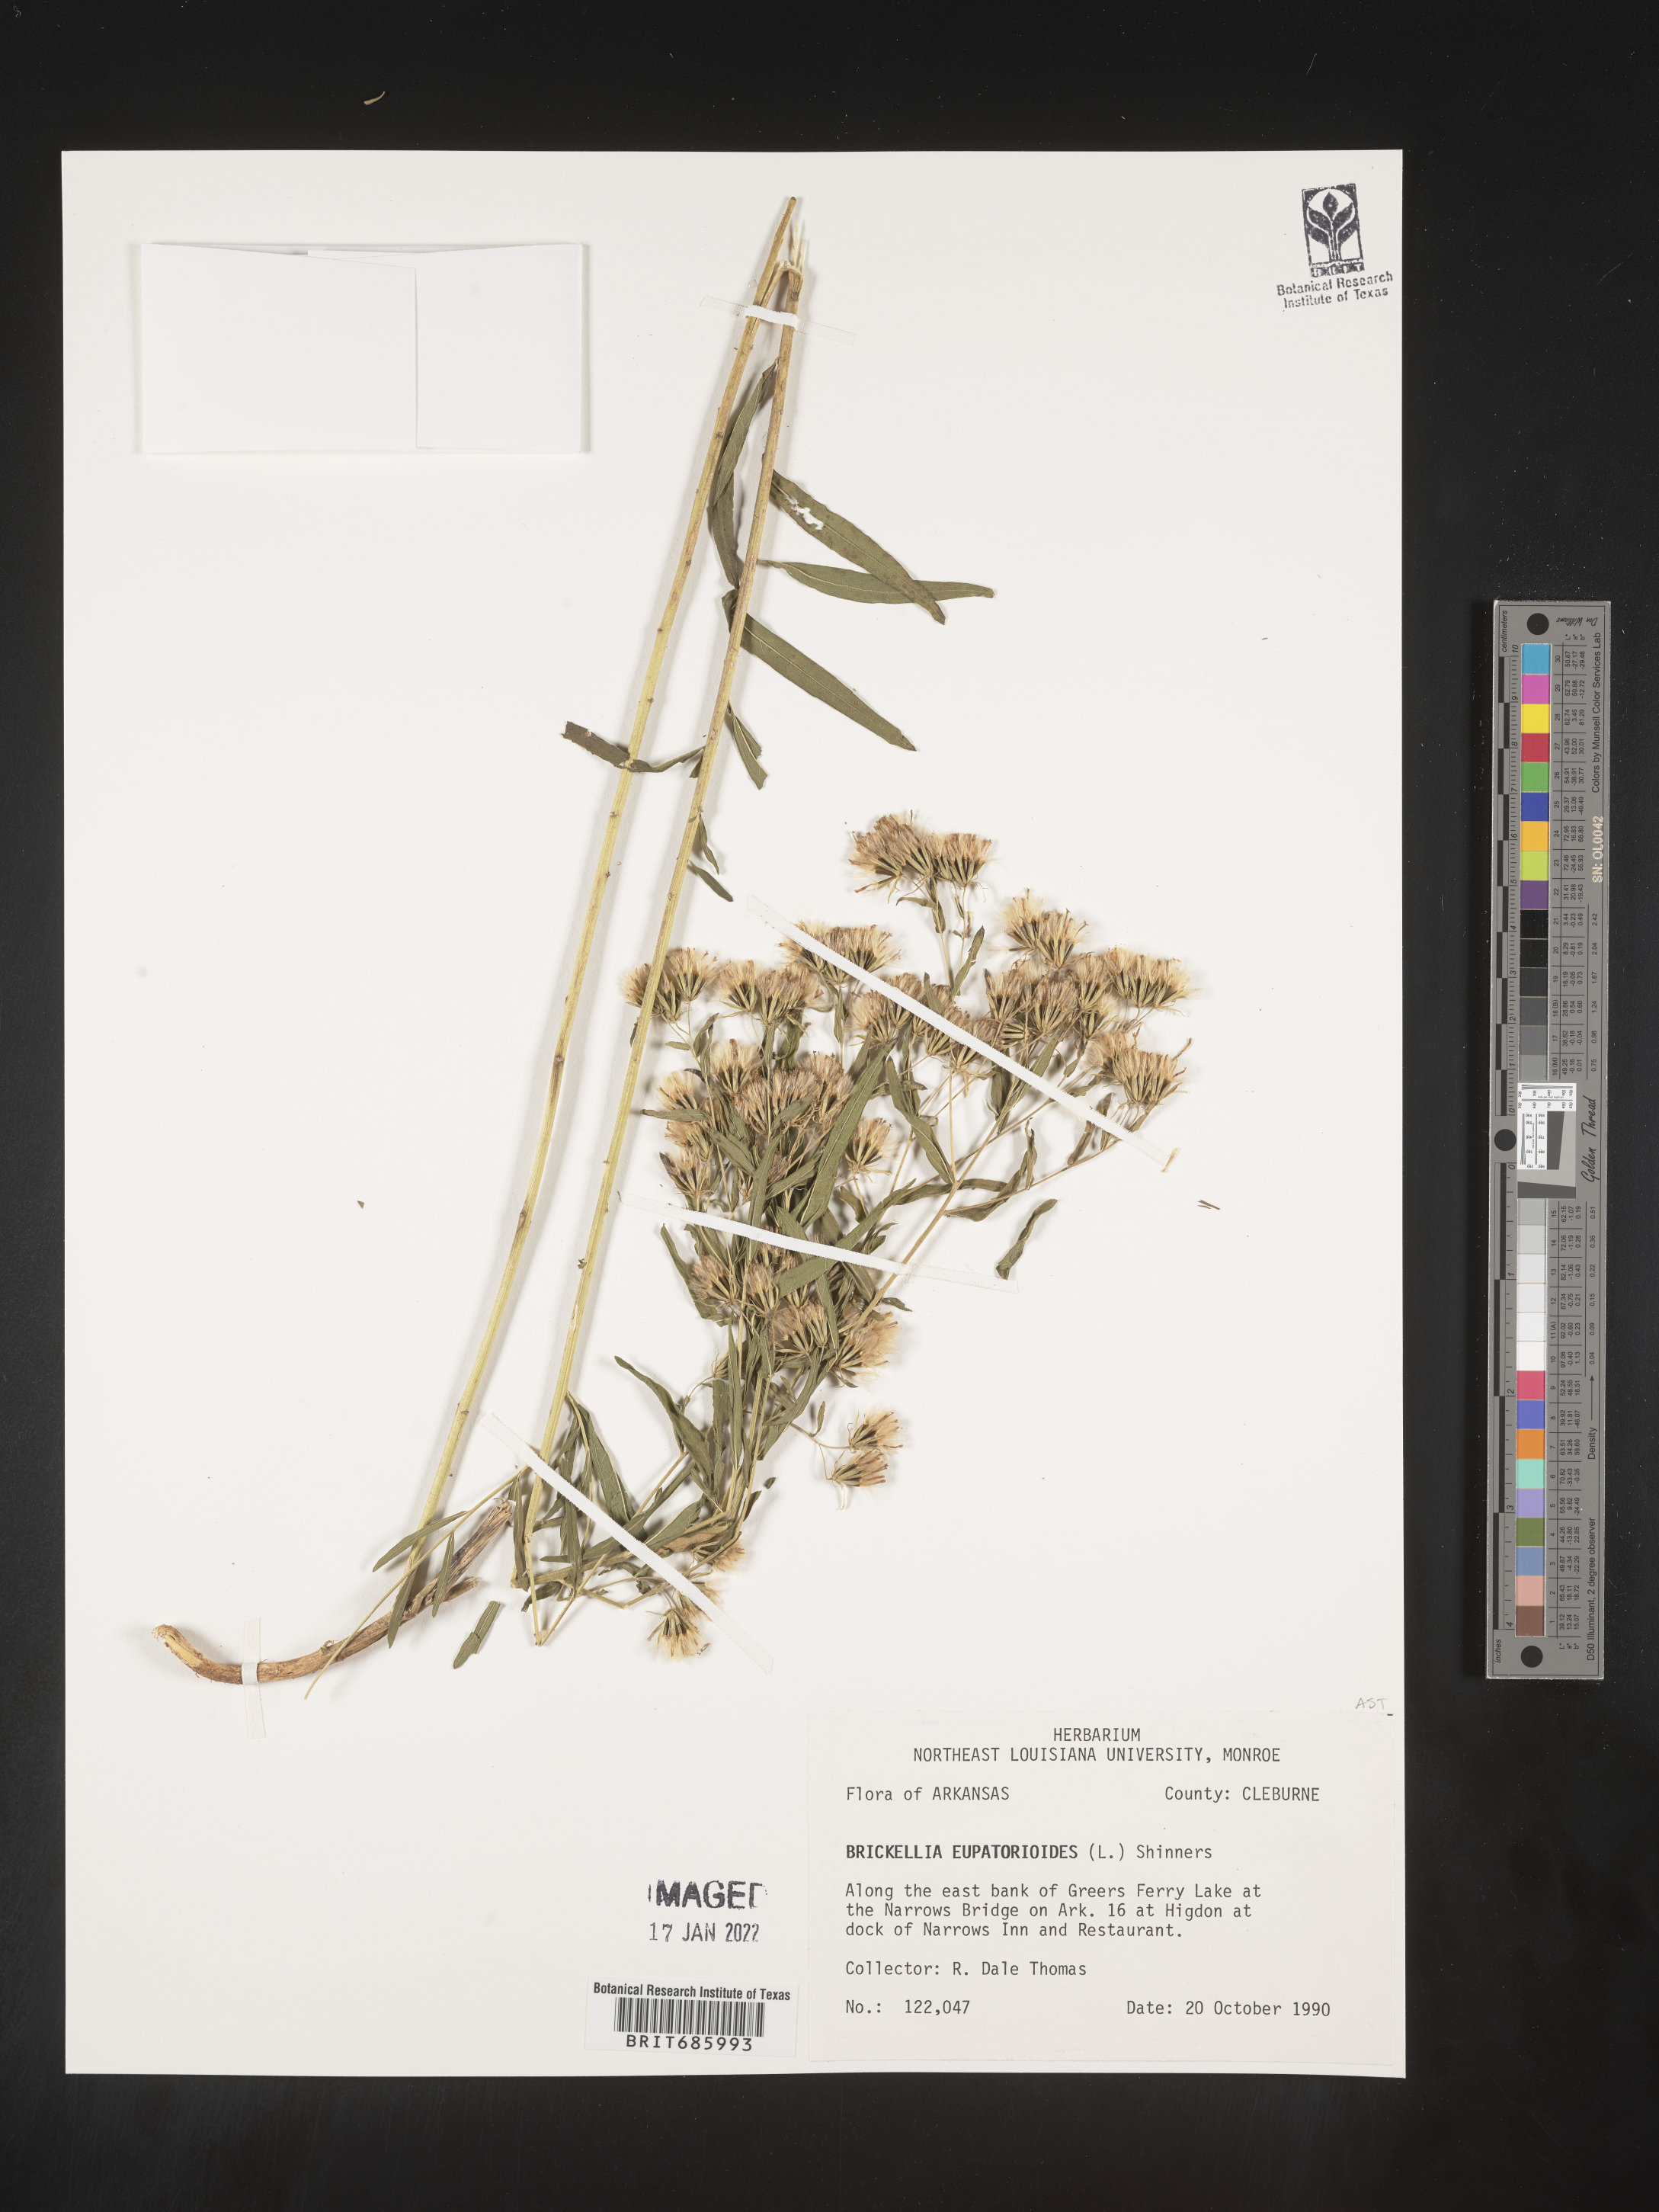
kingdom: Plantae
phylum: Tracheophyta
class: Magnoliopsida
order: Asterales
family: Asteraceae
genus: Brickellia
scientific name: Brickellia eupatorioides
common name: False boneset
